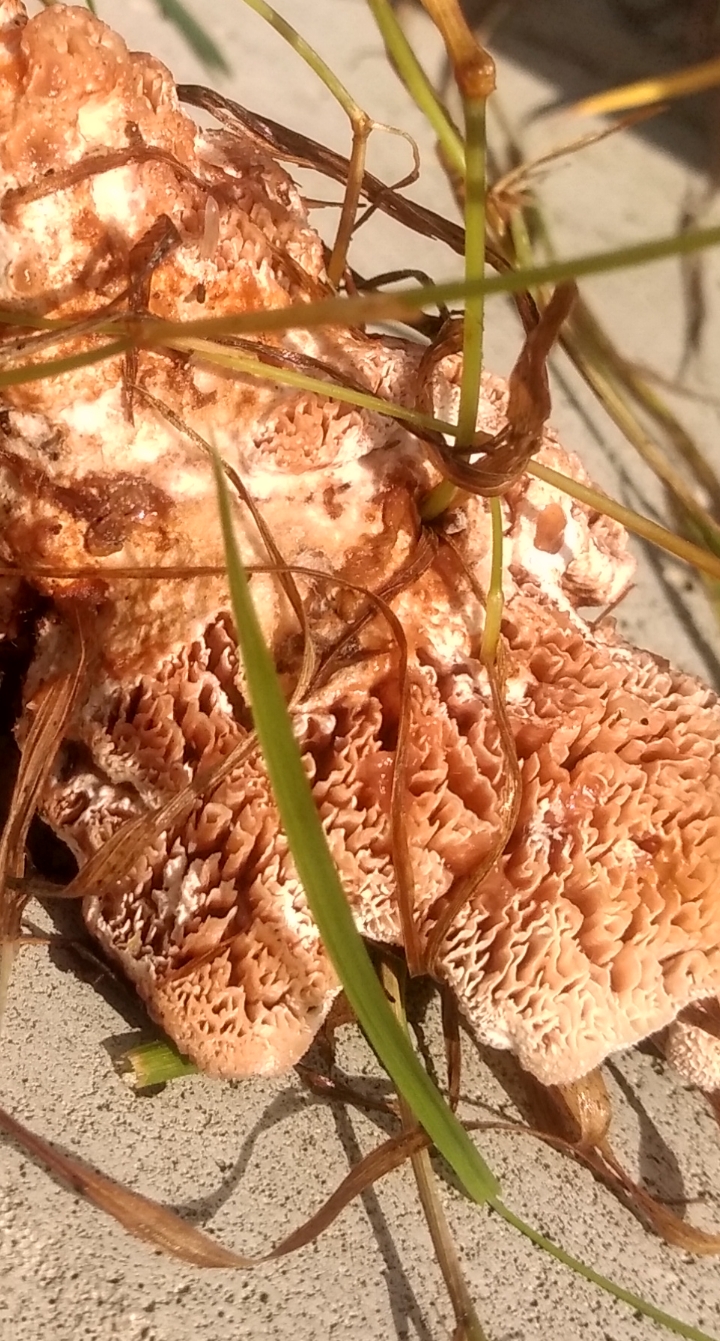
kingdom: Fungi
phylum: Basidiomycota
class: Agaricomycetes
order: Polyporales
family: Podoscyphaceae
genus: Abortiporus
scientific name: Abortiporus biennis
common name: rødmende pjalteporesvamp
